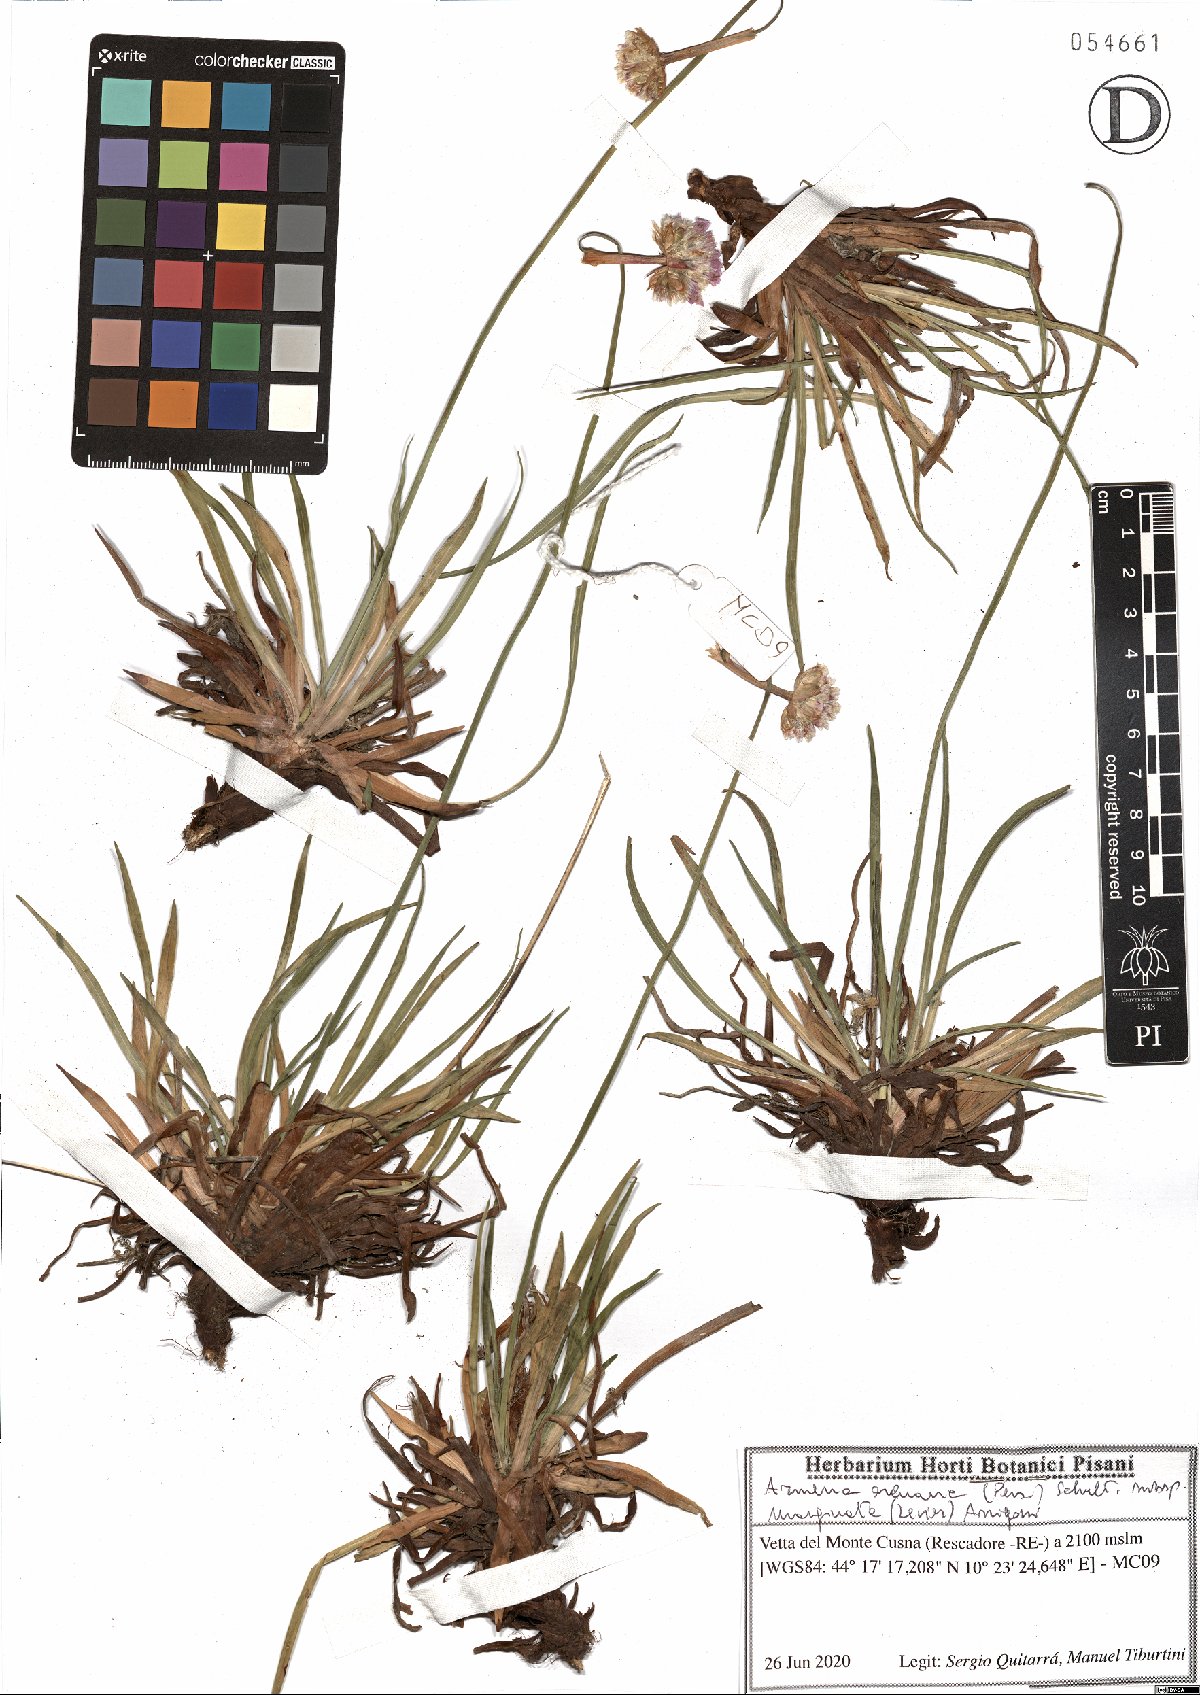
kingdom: Plantae
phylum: Tracheophyta
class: Magnoliopsida
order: Caryophyllales
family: Plumbaginaceae
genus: Armeria
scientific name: Armeria arenaria
